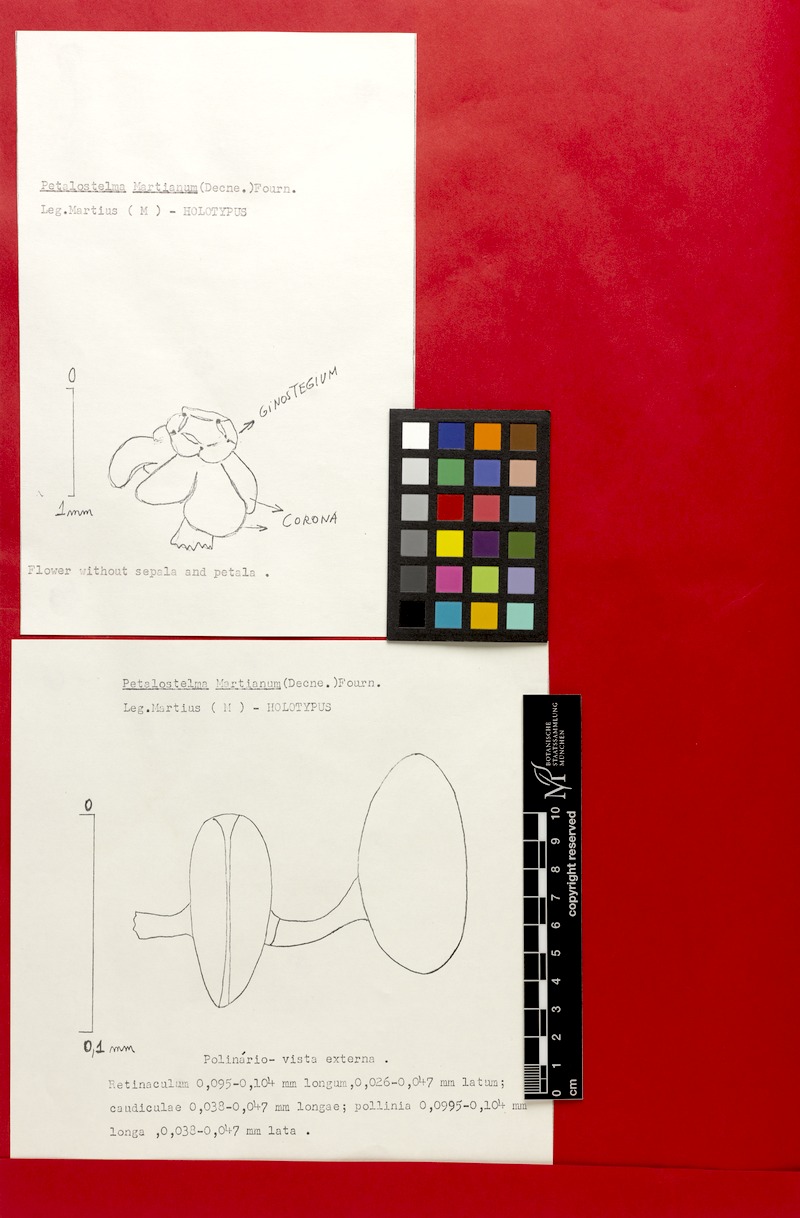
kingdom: Plantae
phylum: Tracheophyta
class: Magnoliopsida
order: Gentianales
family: Apocynaceae
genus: Petalostelma
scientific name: Petalostelma martianum
